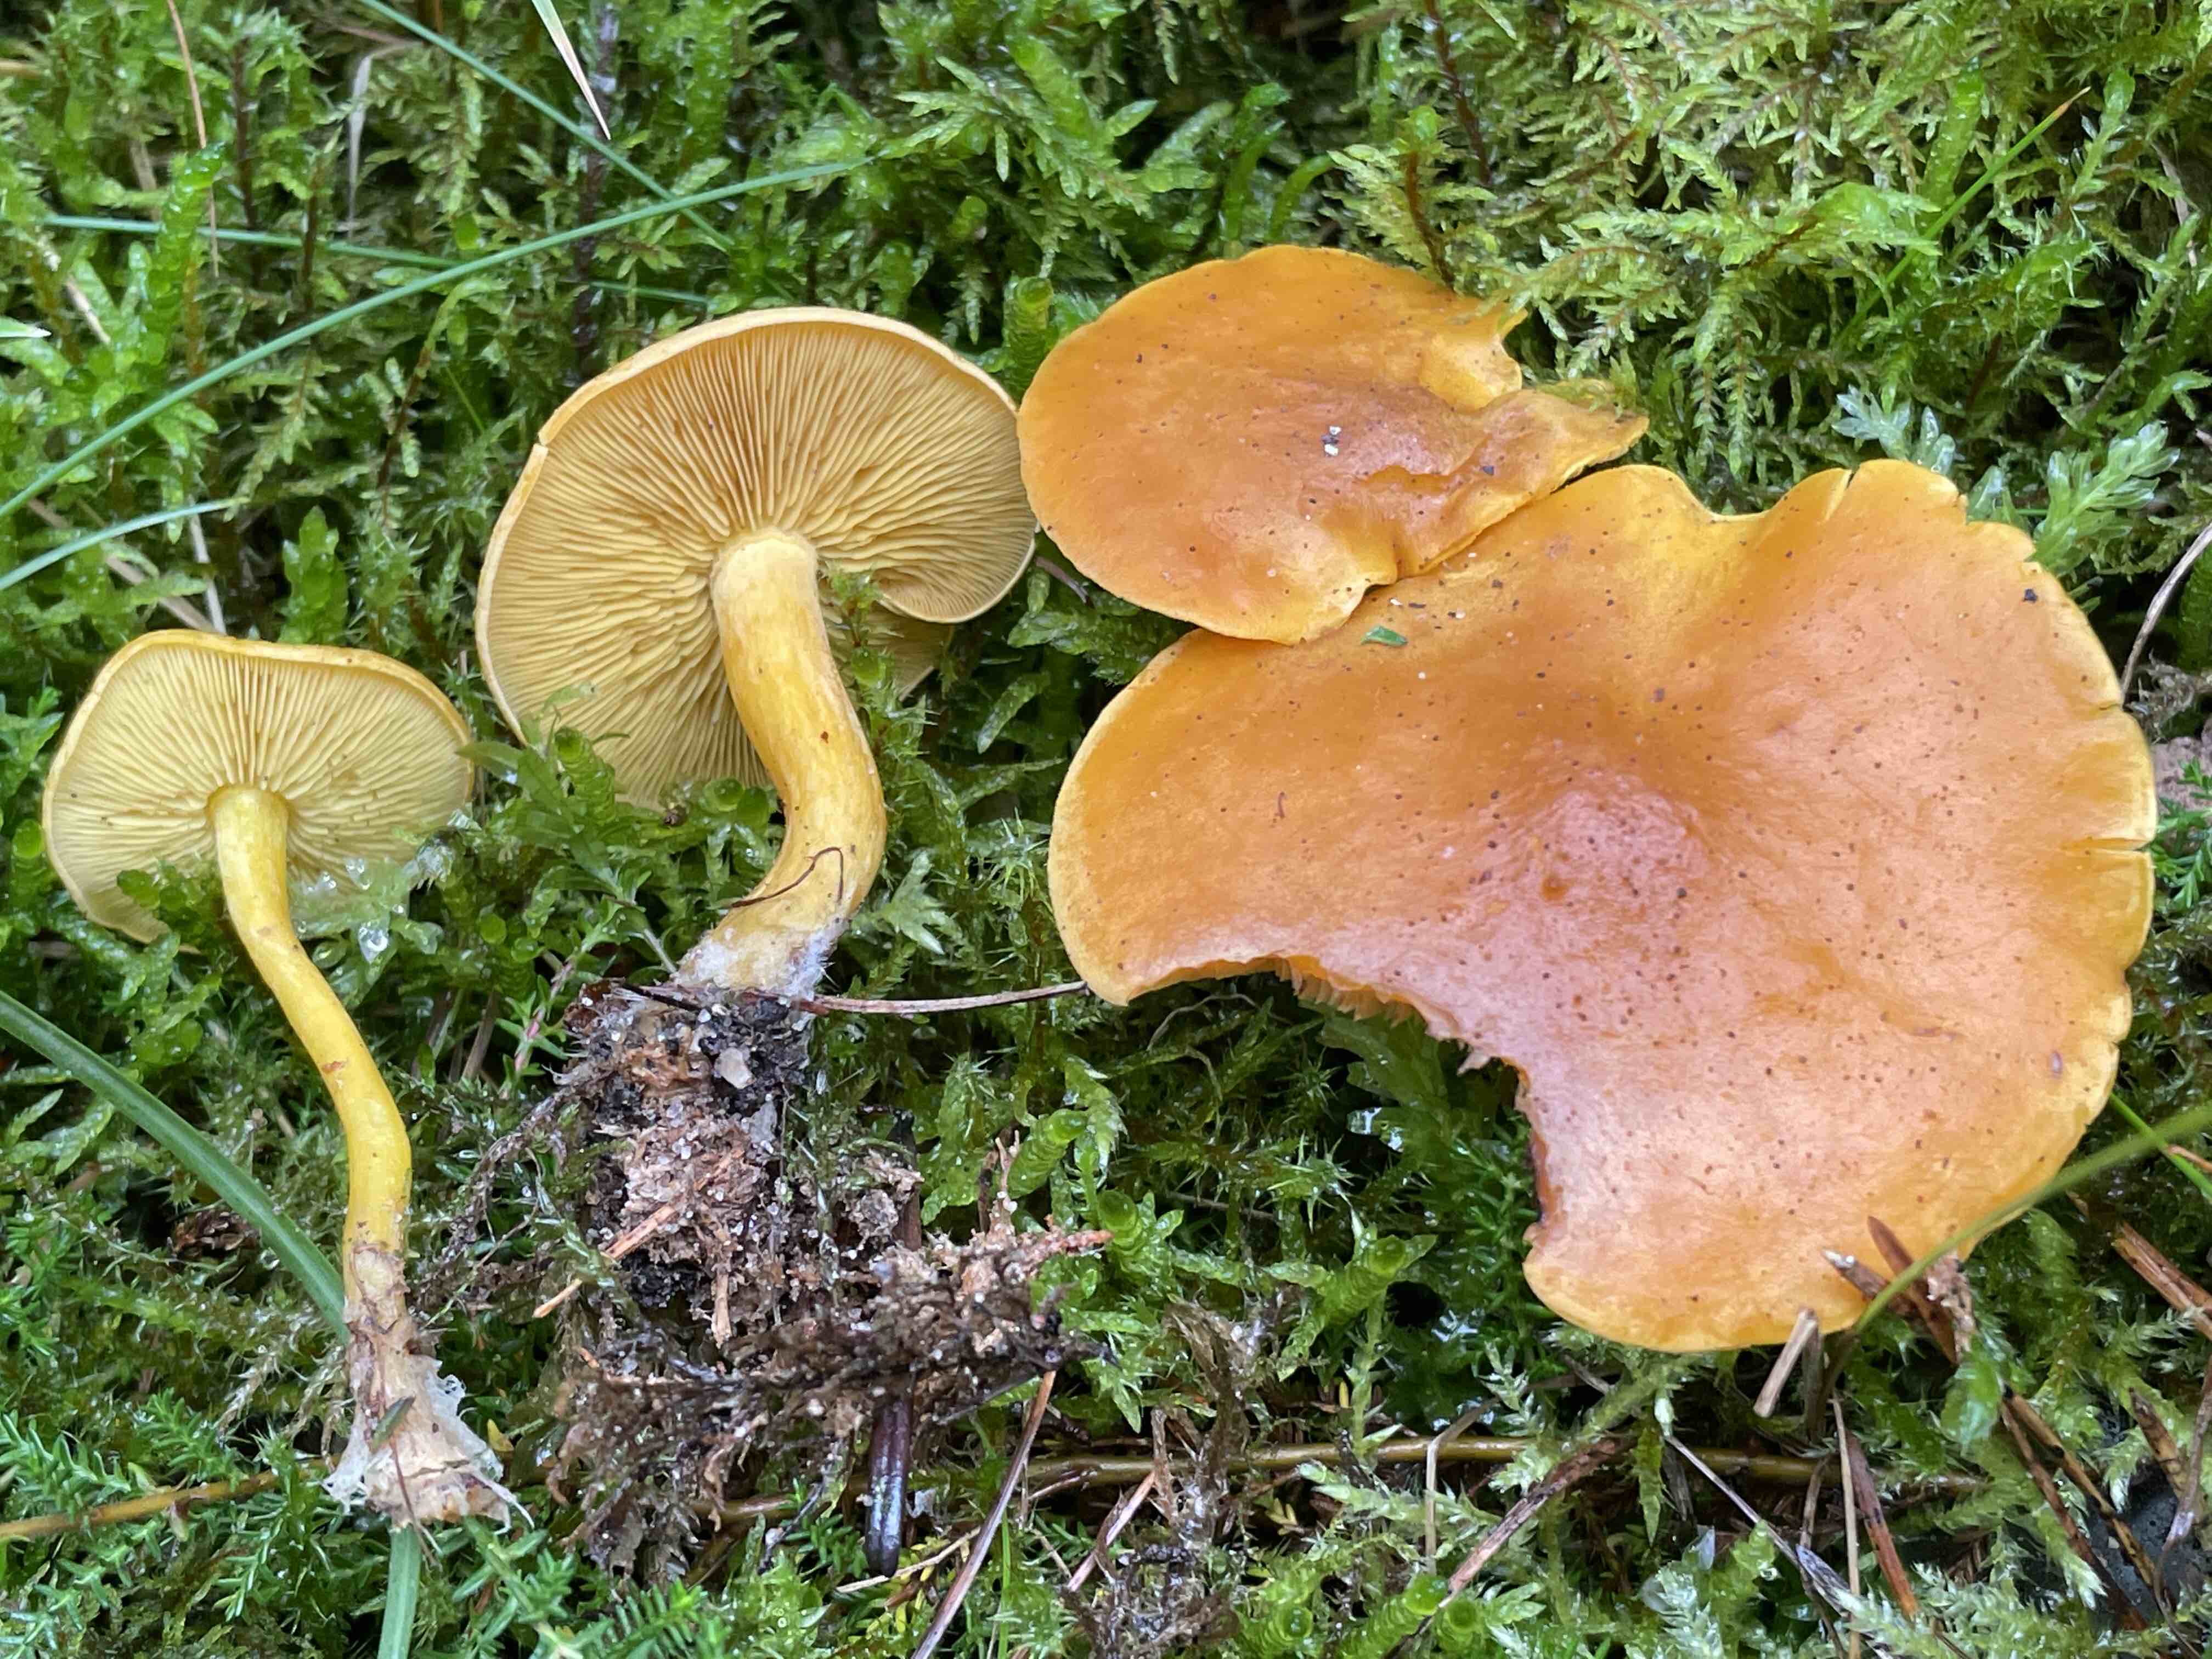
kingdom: Fungi
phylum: Basidiomycota
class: Agaricomycetes
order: Agaricales
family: Lyophyllaceae
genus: Calocybe
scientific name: Calocybe chrysenteron
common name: brandgul fagerhat
